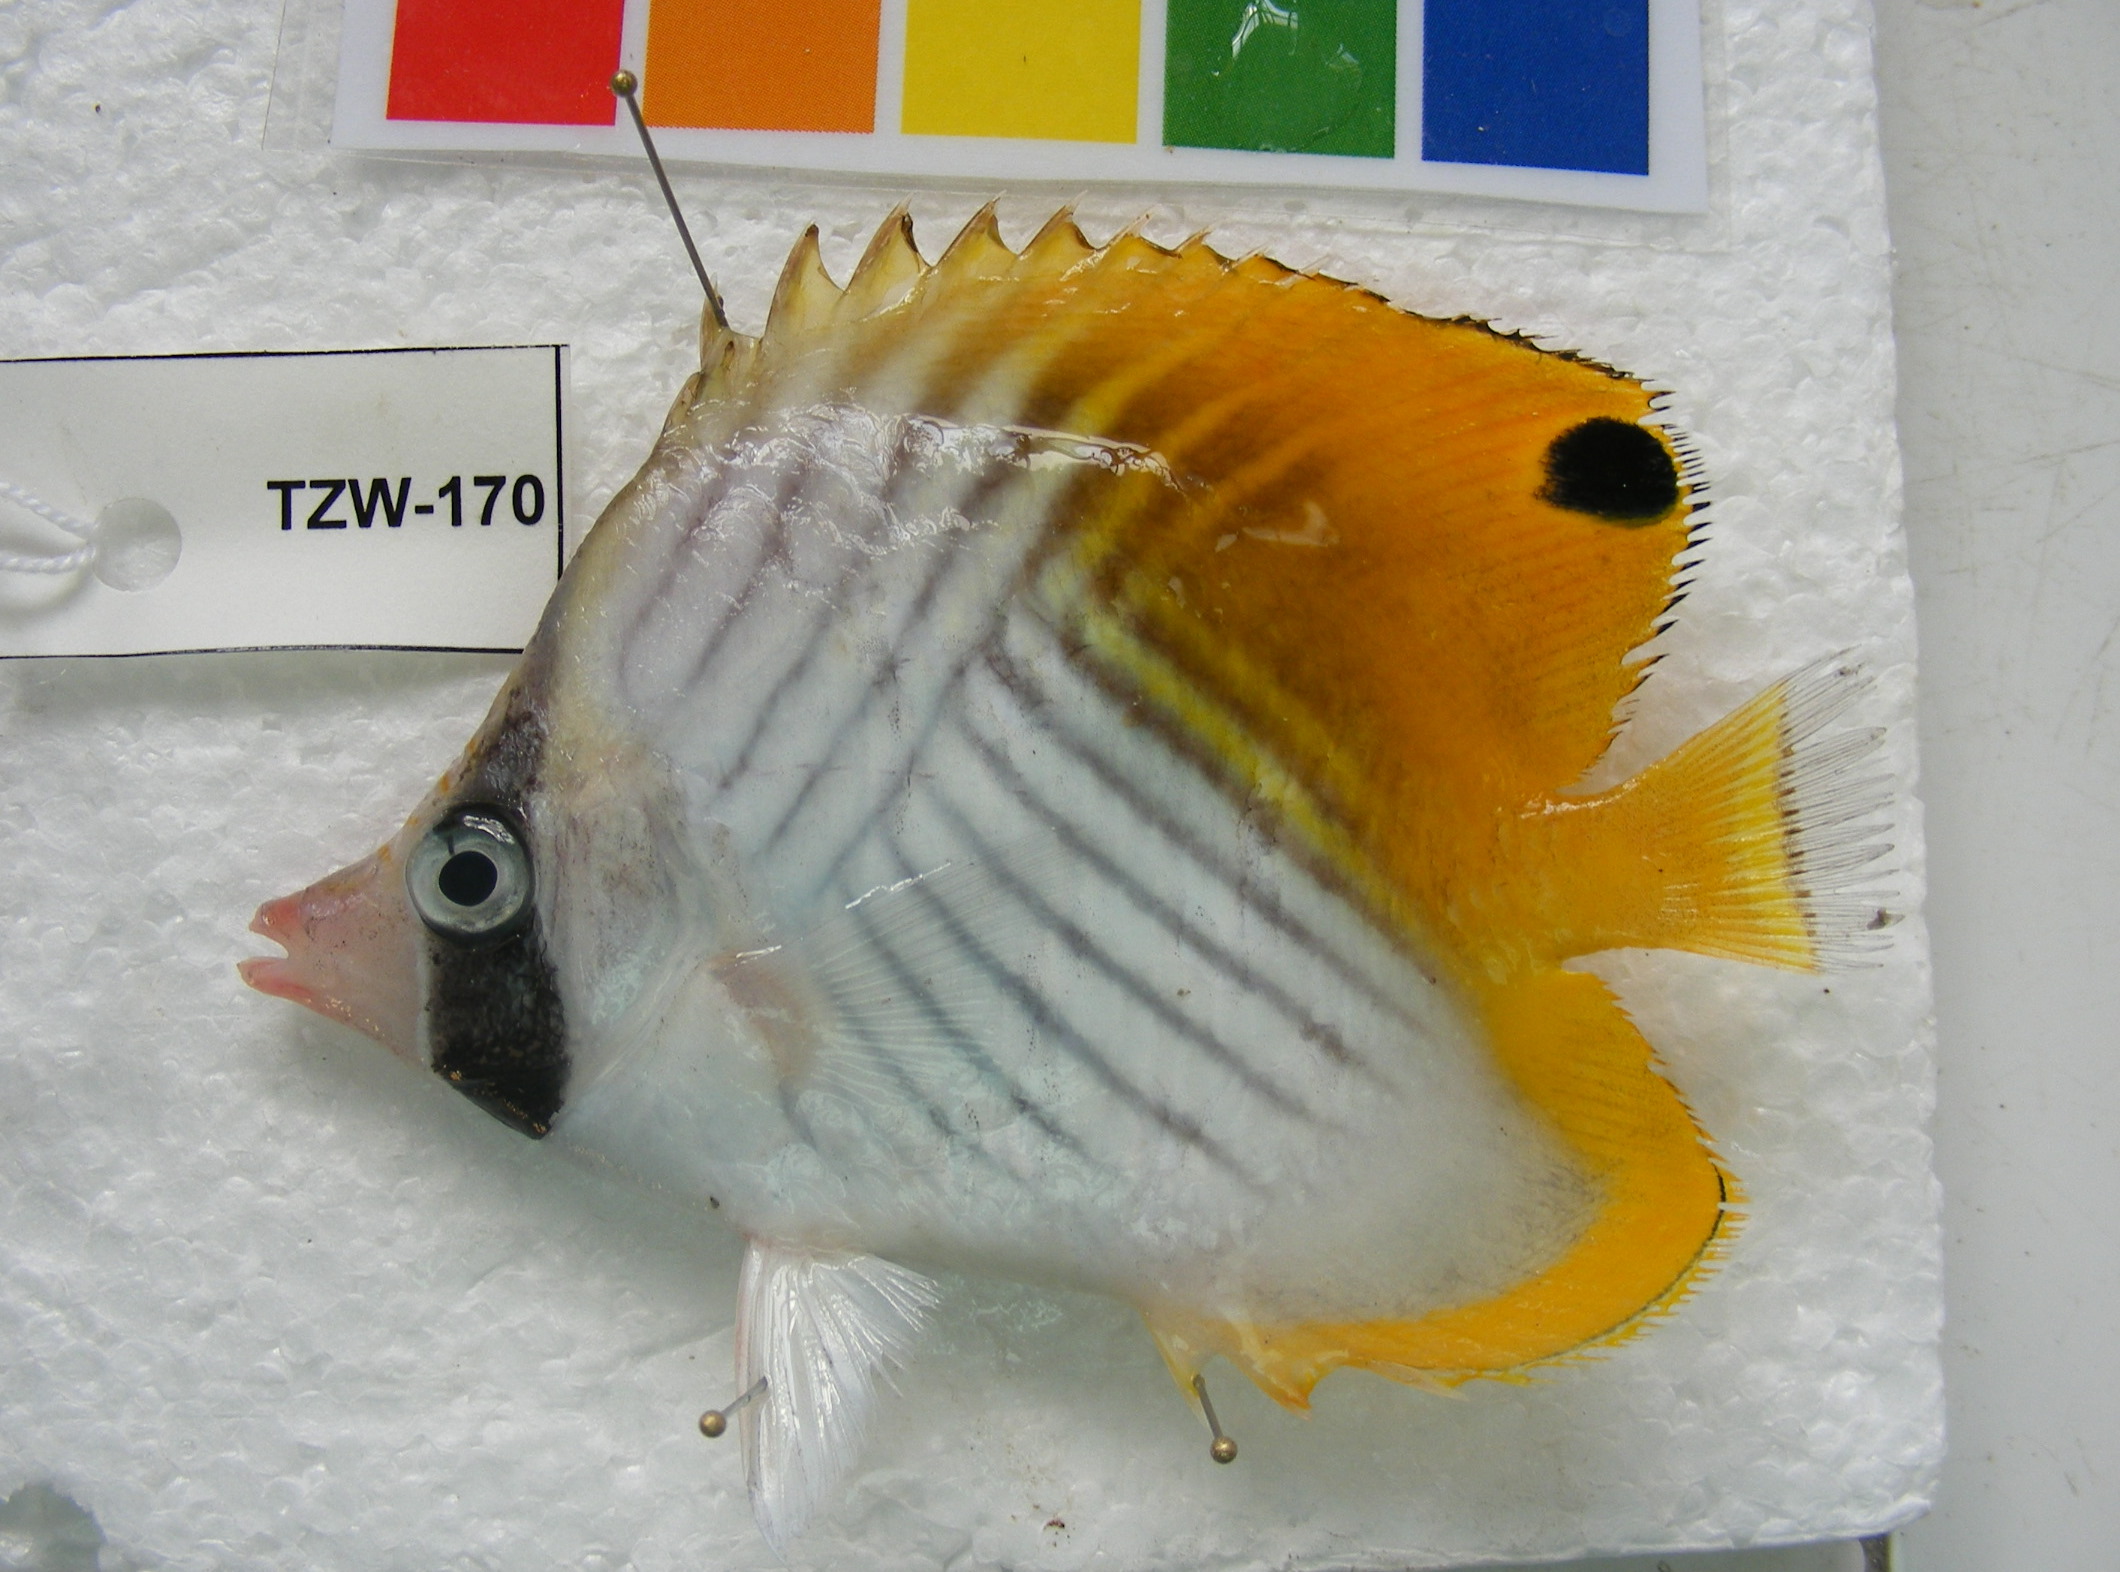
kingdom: Animalia
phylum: Chordata
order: Perciformes
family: Chaetodontidae
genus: Chaetodon
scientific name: Chaetodon auriga
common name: Threadfin butterflyfish
